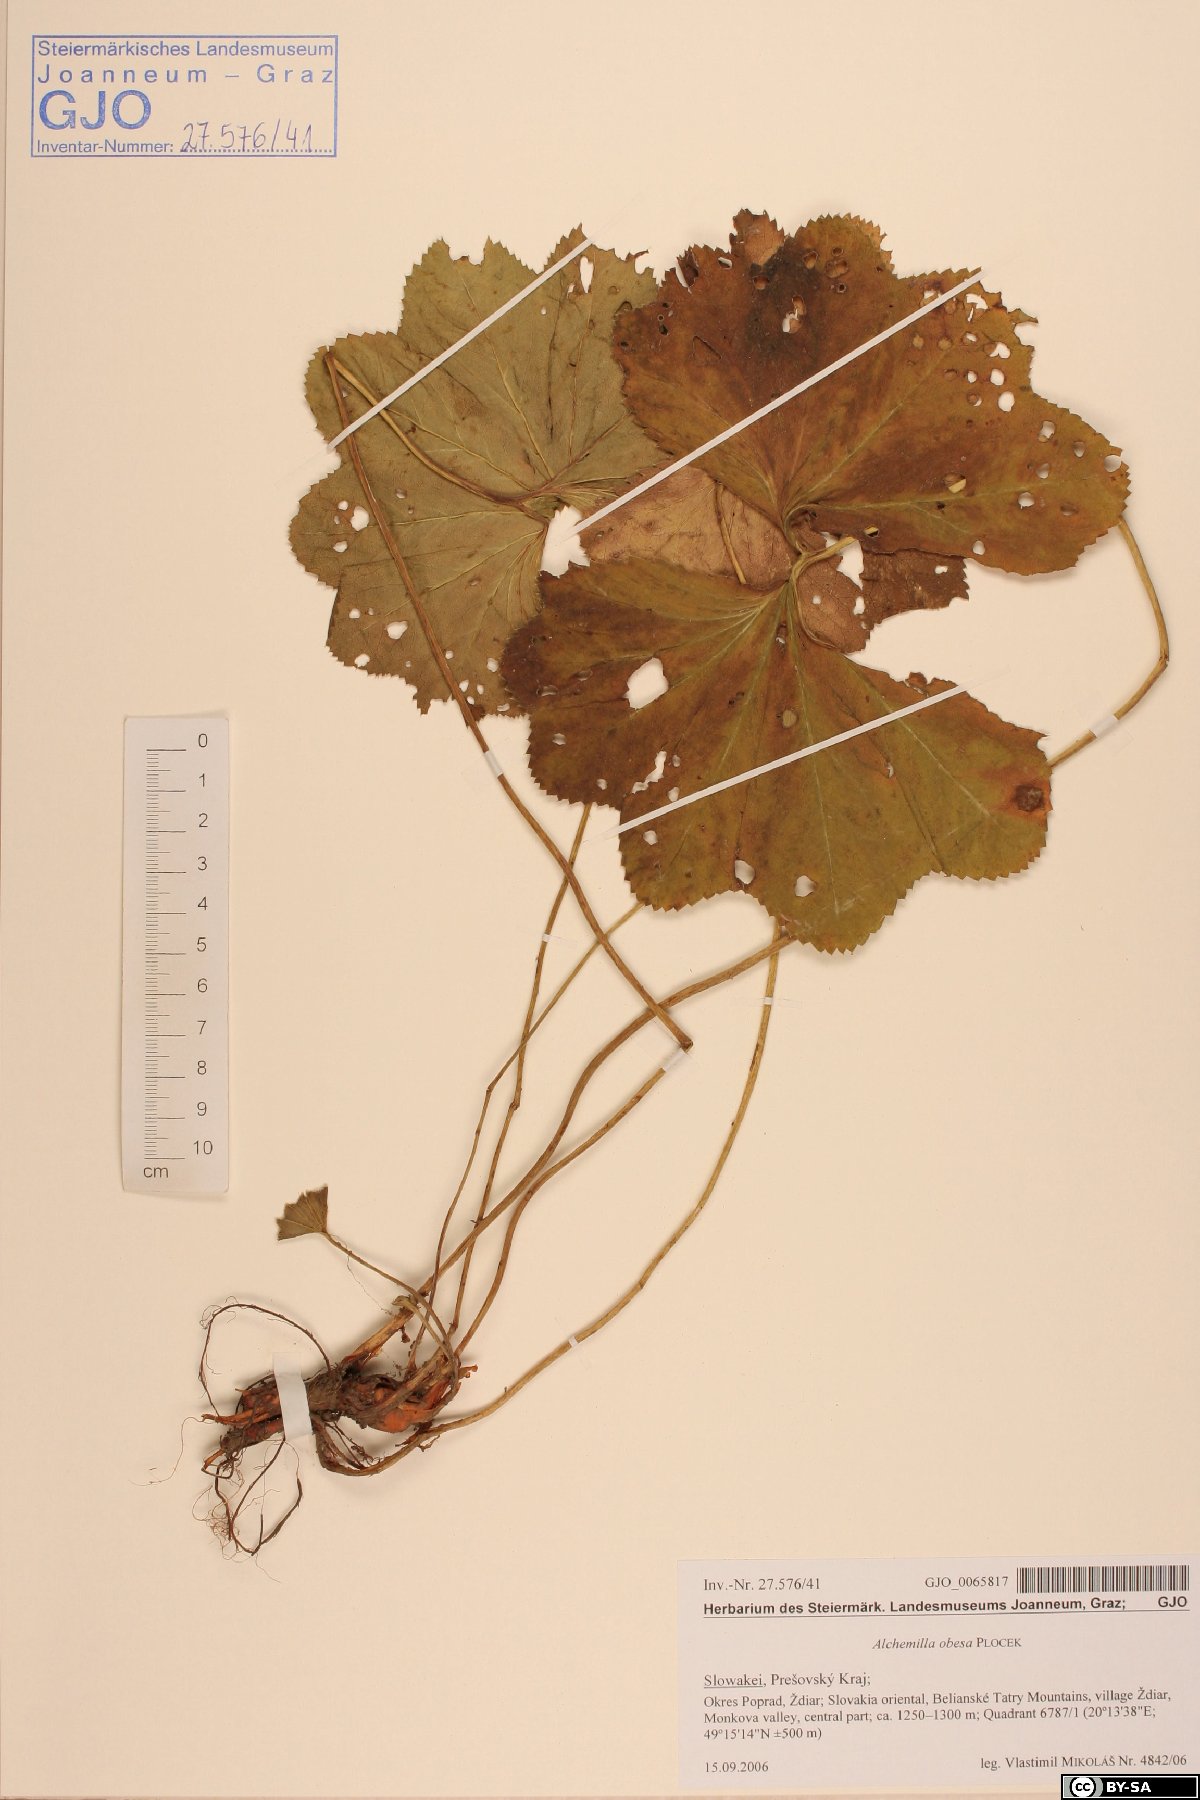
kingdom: Plantae
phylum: Tracheophyta
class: Magnoliopsida
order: Rosales
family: Rosaceae
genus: Alchemilla
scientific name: Alchemilla obesa
